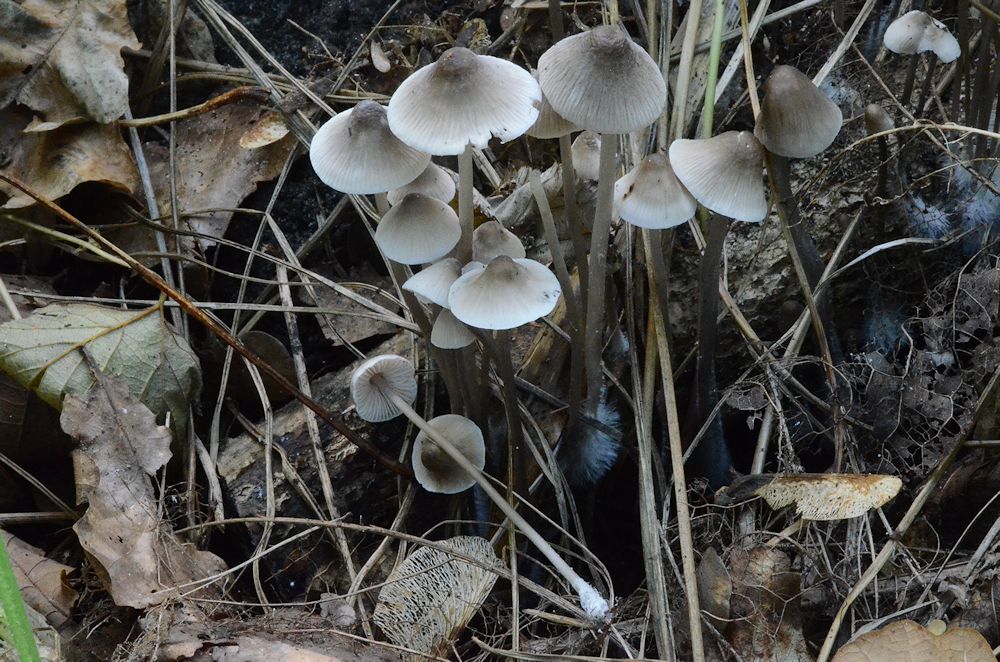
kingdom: Fungi
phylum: Basidiomycota
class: Agaricomycetes
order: Agaricales
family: Mycenaceae
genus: Mycena
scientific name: Mycena galericulata
